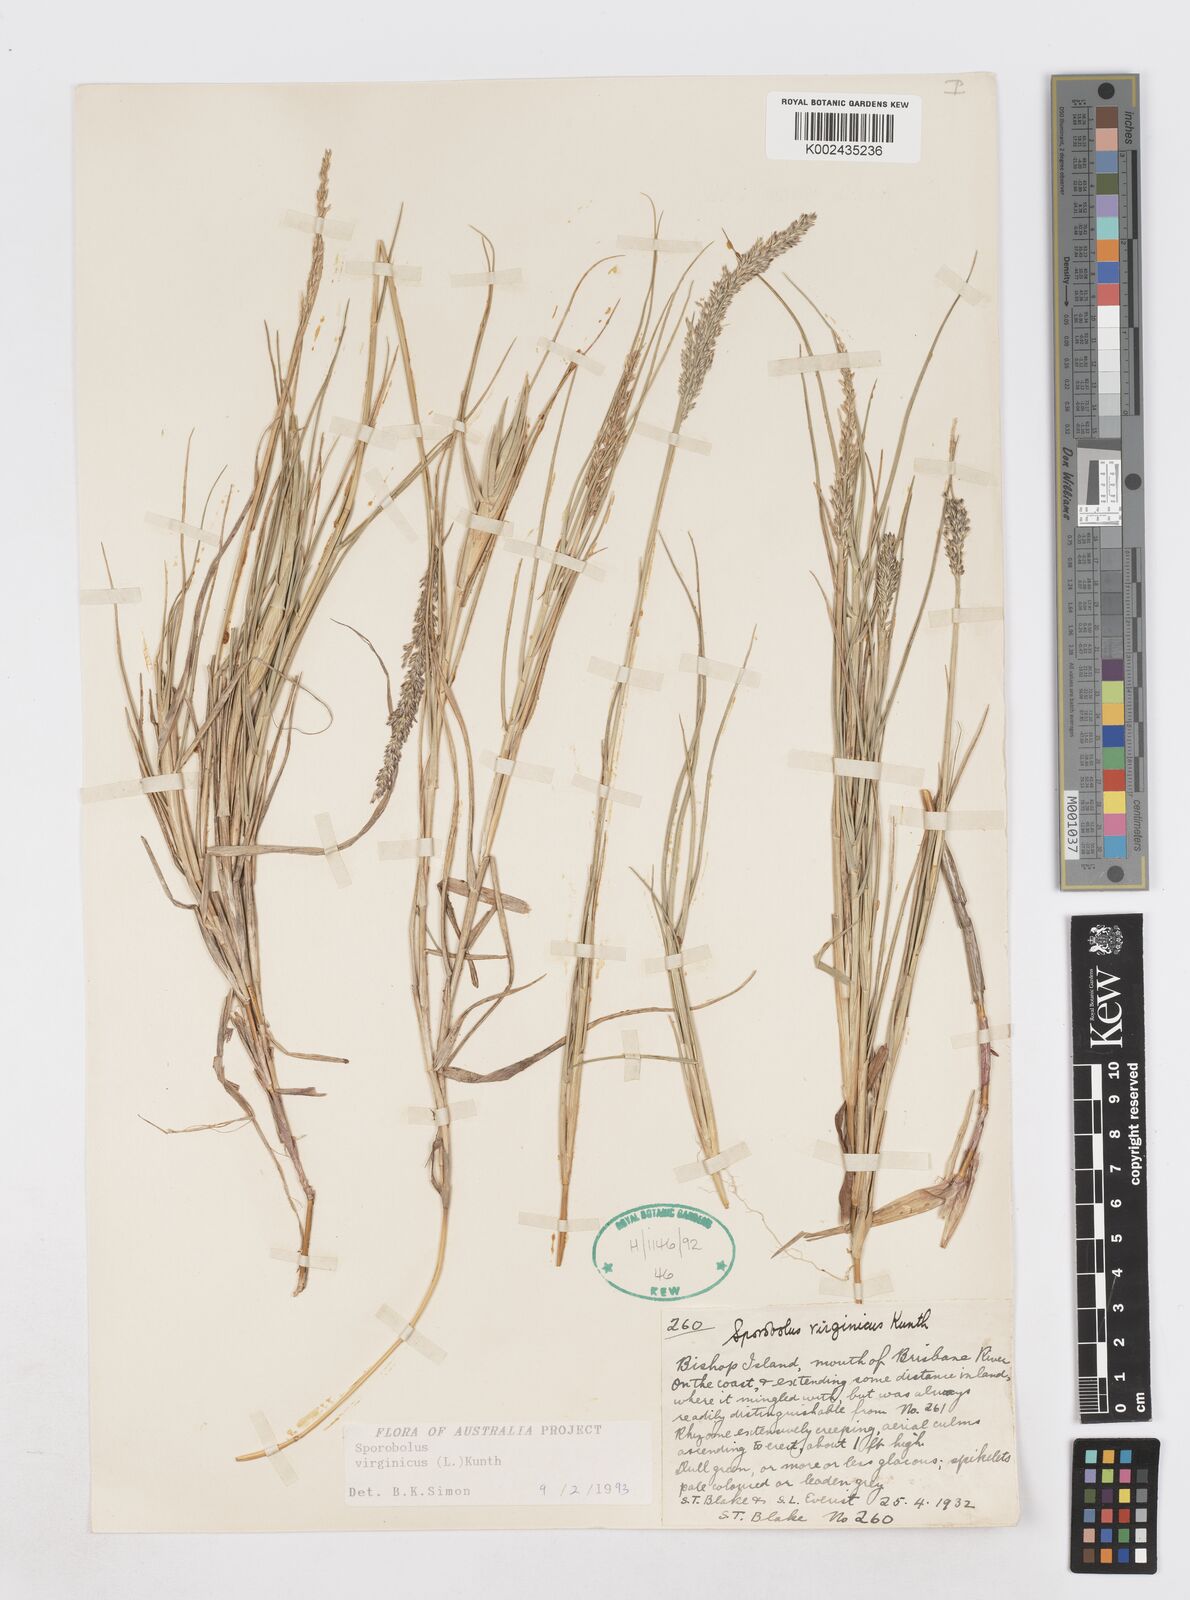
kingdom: Plantae
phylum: Tracheophyta
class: Liliopsida
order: Poales
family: Poaceae
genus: Sporobolus
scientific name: Sporobolus virginicus
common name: Beach dropseed
